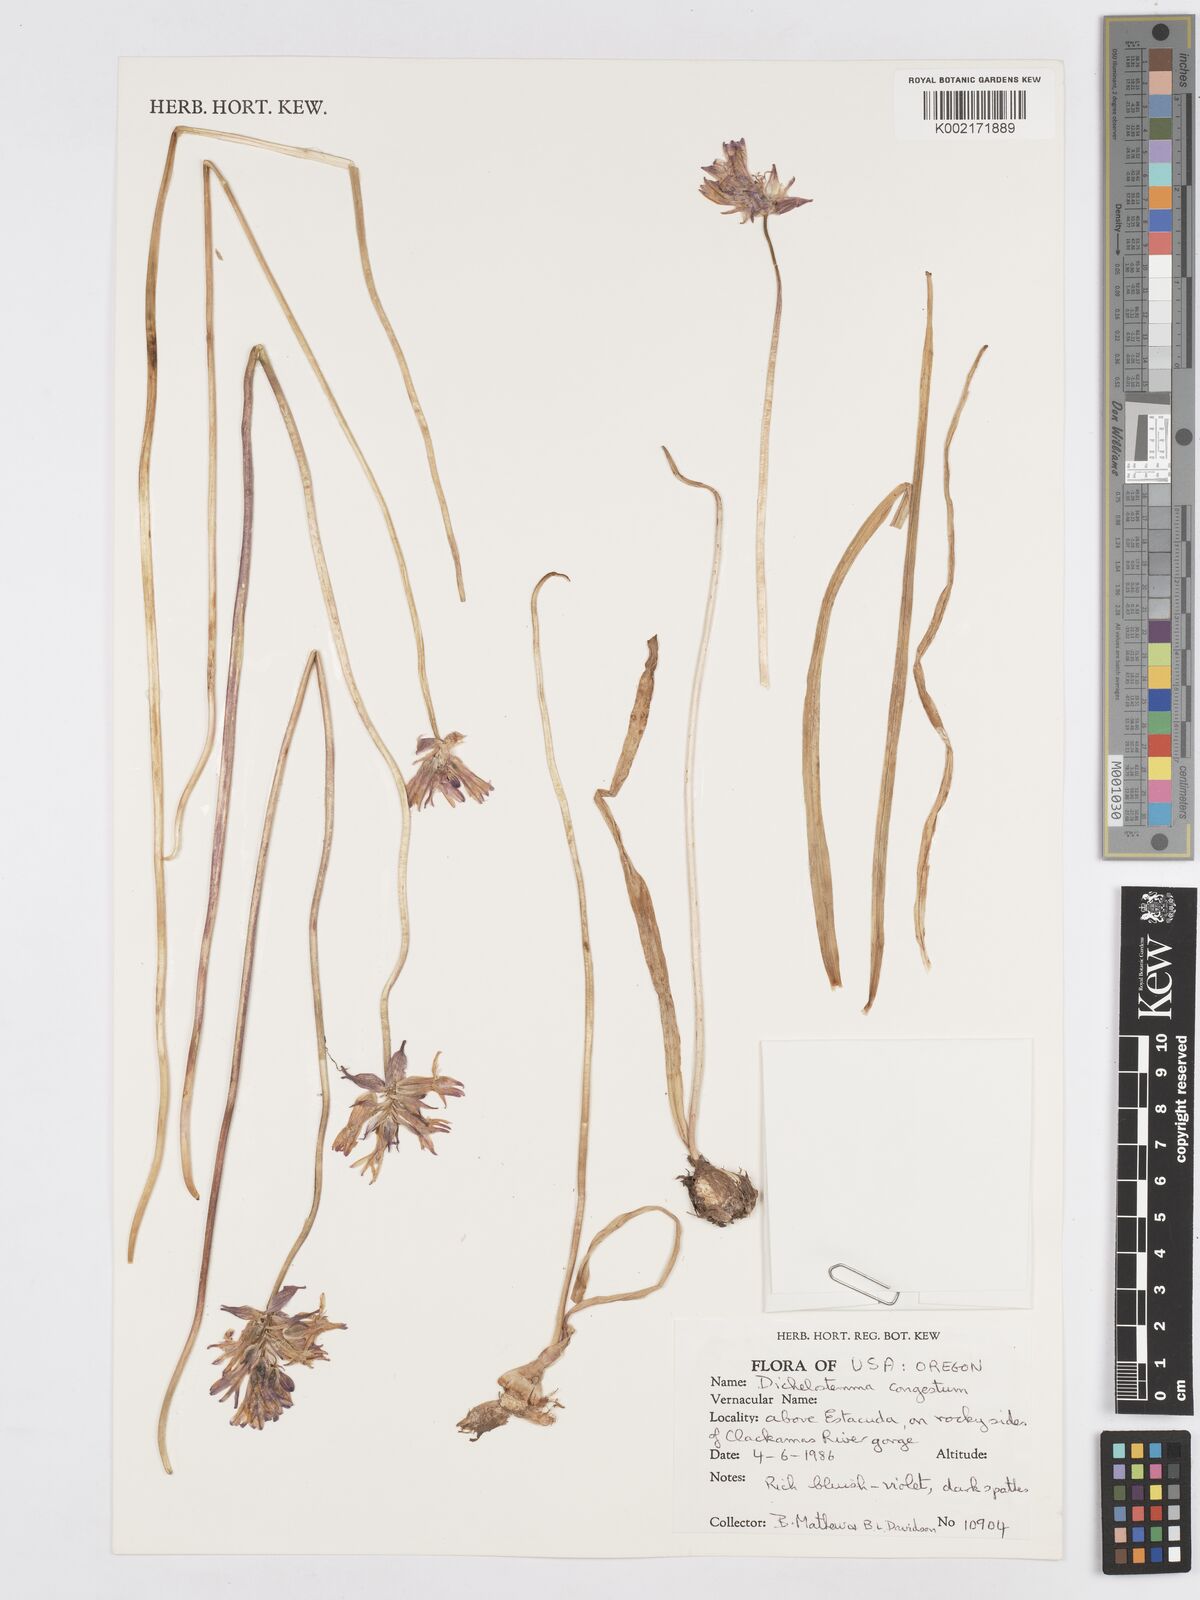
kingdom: Plantae
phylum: Tracheophyta
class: Liliopsida
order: Asparagales
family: Asparagaceae
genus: Dichelostemma
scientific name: Dichelostemma congestum
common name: Fork-tooth ookow
